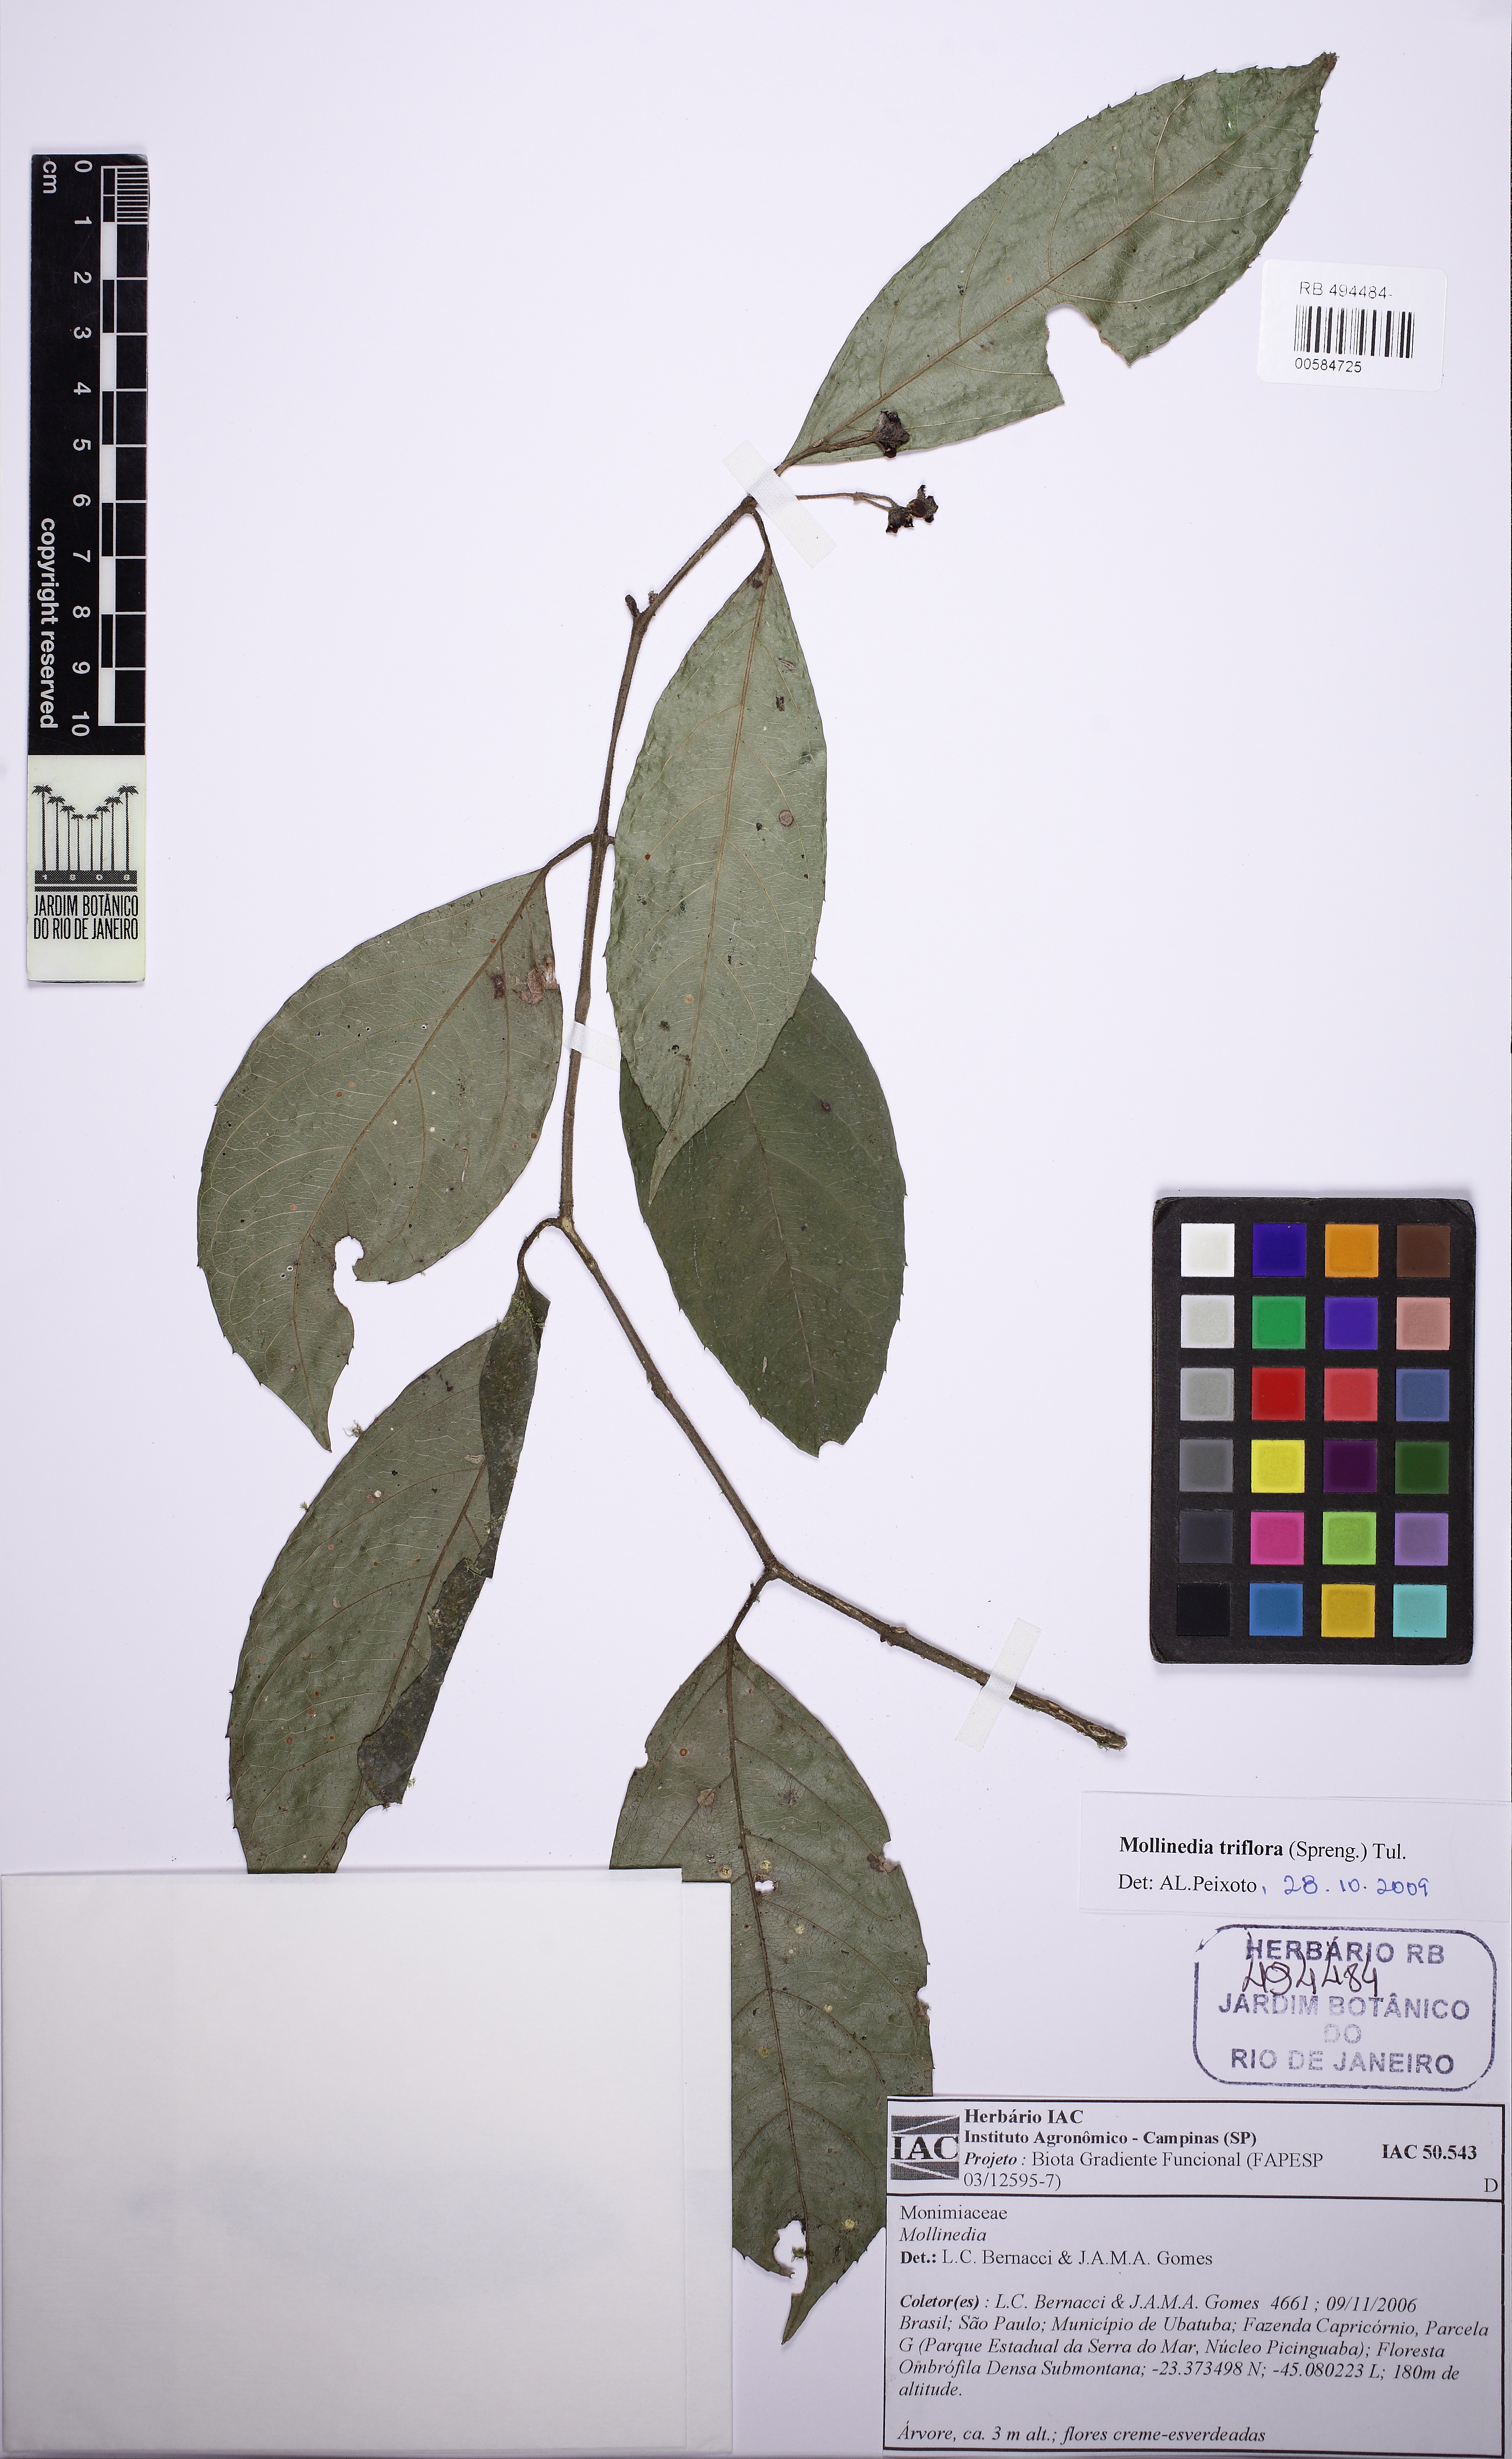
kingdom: Plantae
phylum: Tracheophyta
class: Magnoliopsida
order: Laurales
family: Monimiaceae
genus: Mollinedia
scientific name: Mollinedia umbellata
